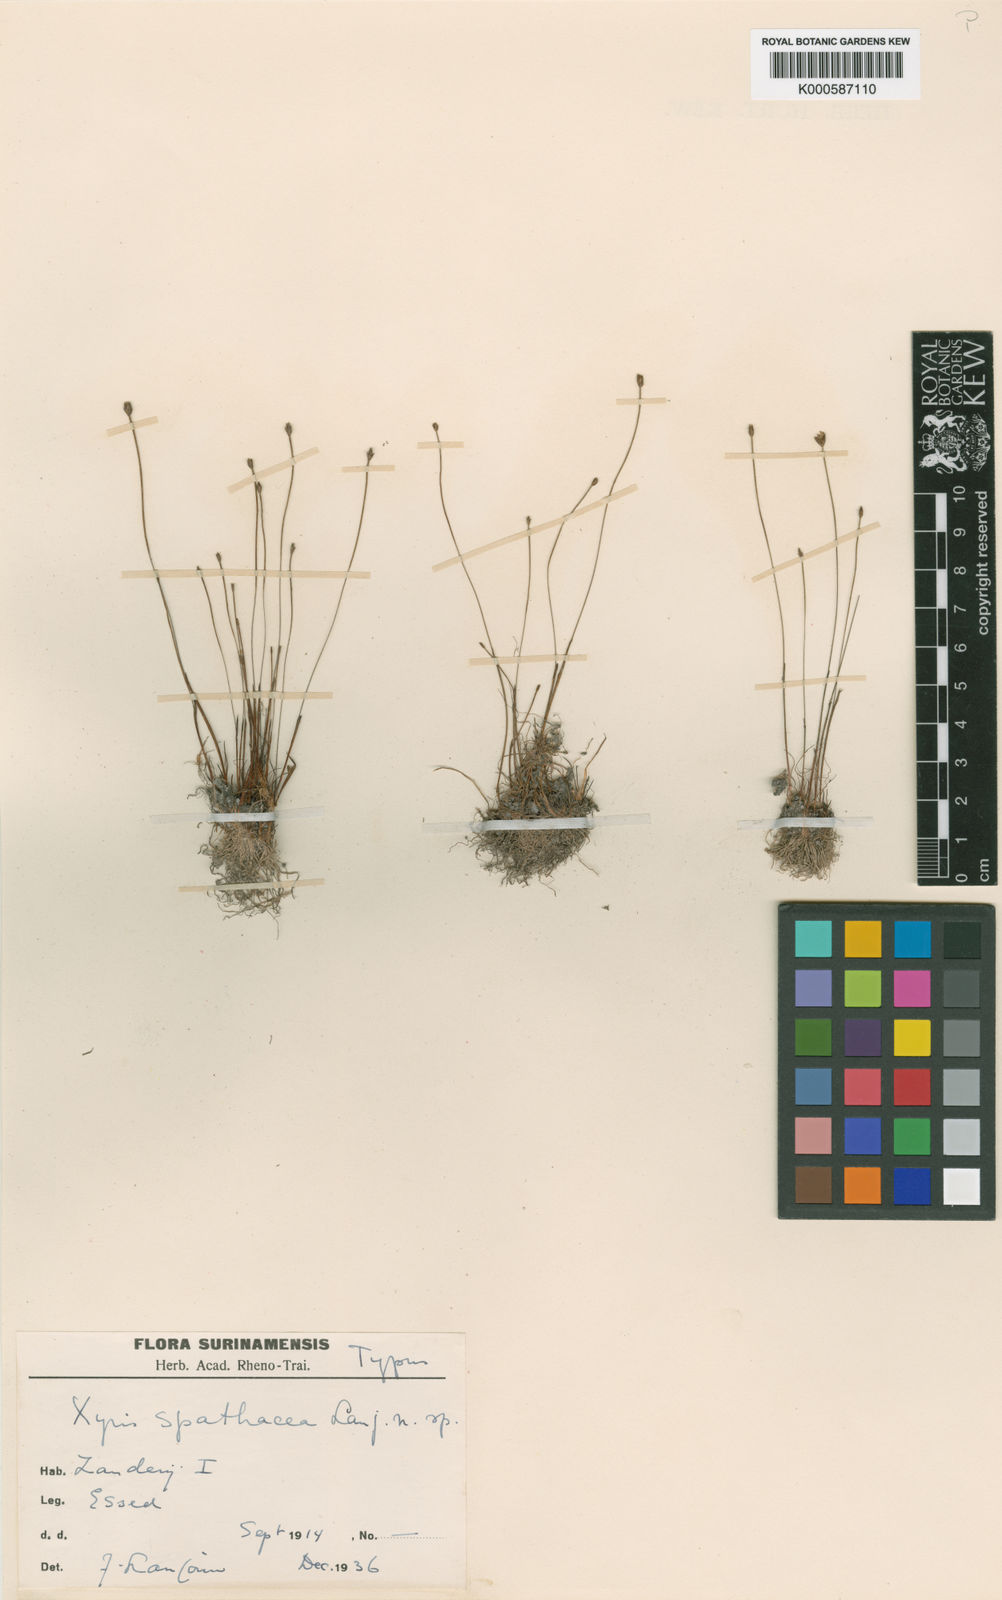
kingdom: Plantae
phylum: Tracheophyta
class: Liliopsida
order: Poales
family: Xyridaceae
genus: Xyris
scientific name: Xyris spathacea
